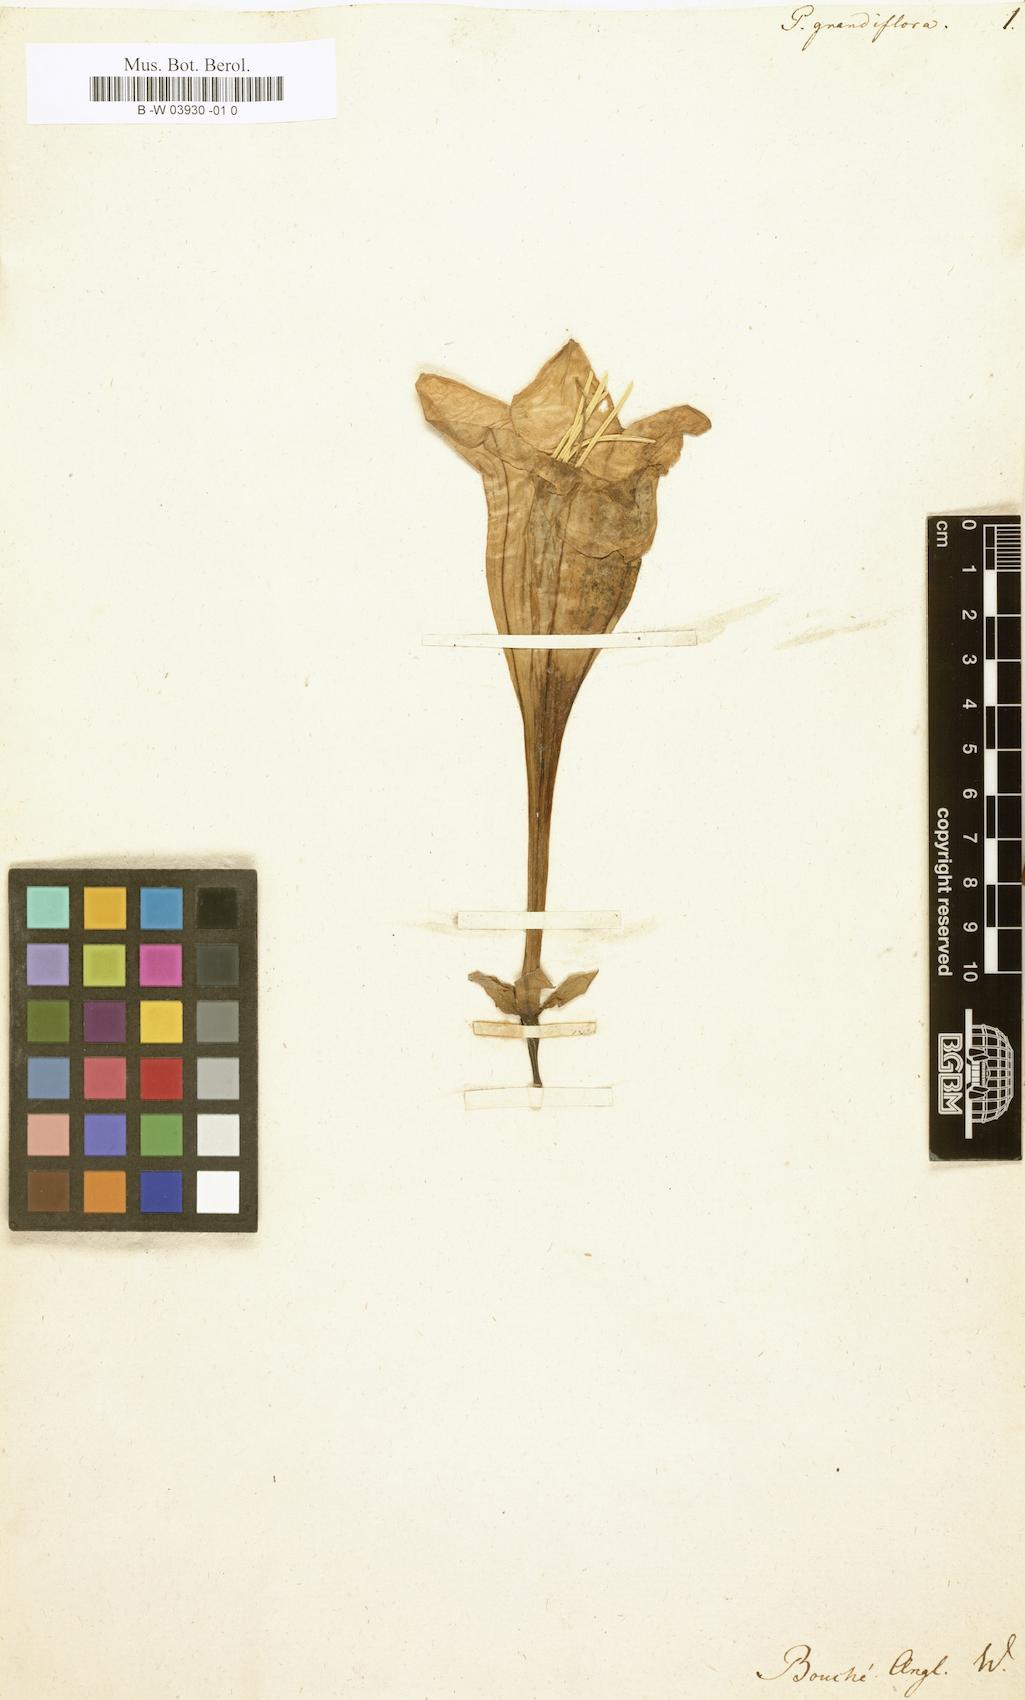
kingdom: Plantae
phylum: Tracheophyta
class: Magnoliopsida
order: Gentianales
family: Rubiaceae
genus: Portlandia
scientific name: Portlandia grandiflora
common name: Bellflower
